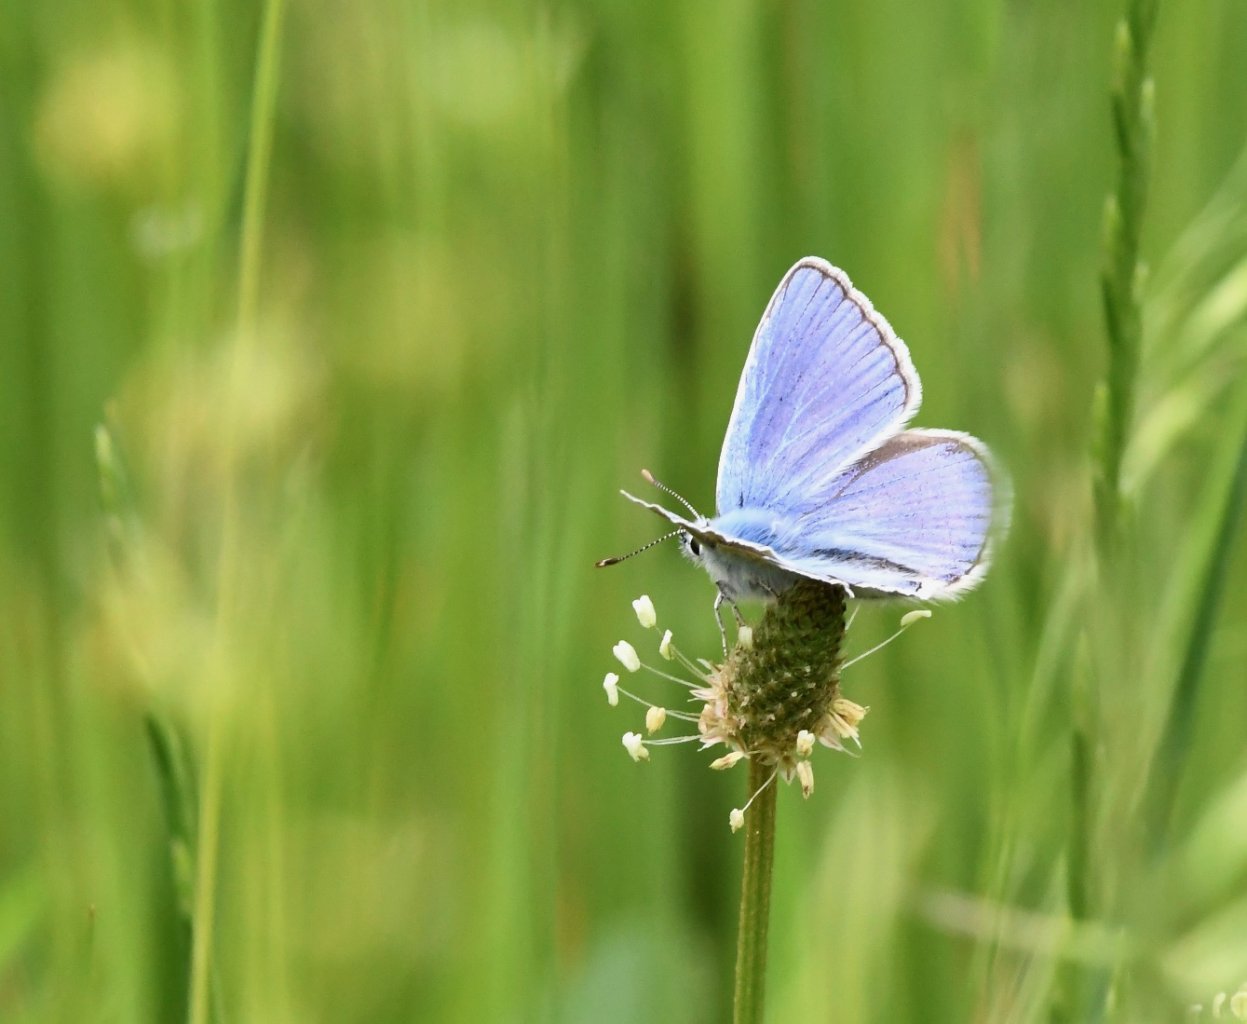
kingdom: Animalia
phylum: Arthropoda
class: Insecta
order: Lepidoptera
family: Lycaenidae
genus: Polyommatus
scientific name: Polyommatus icarus
